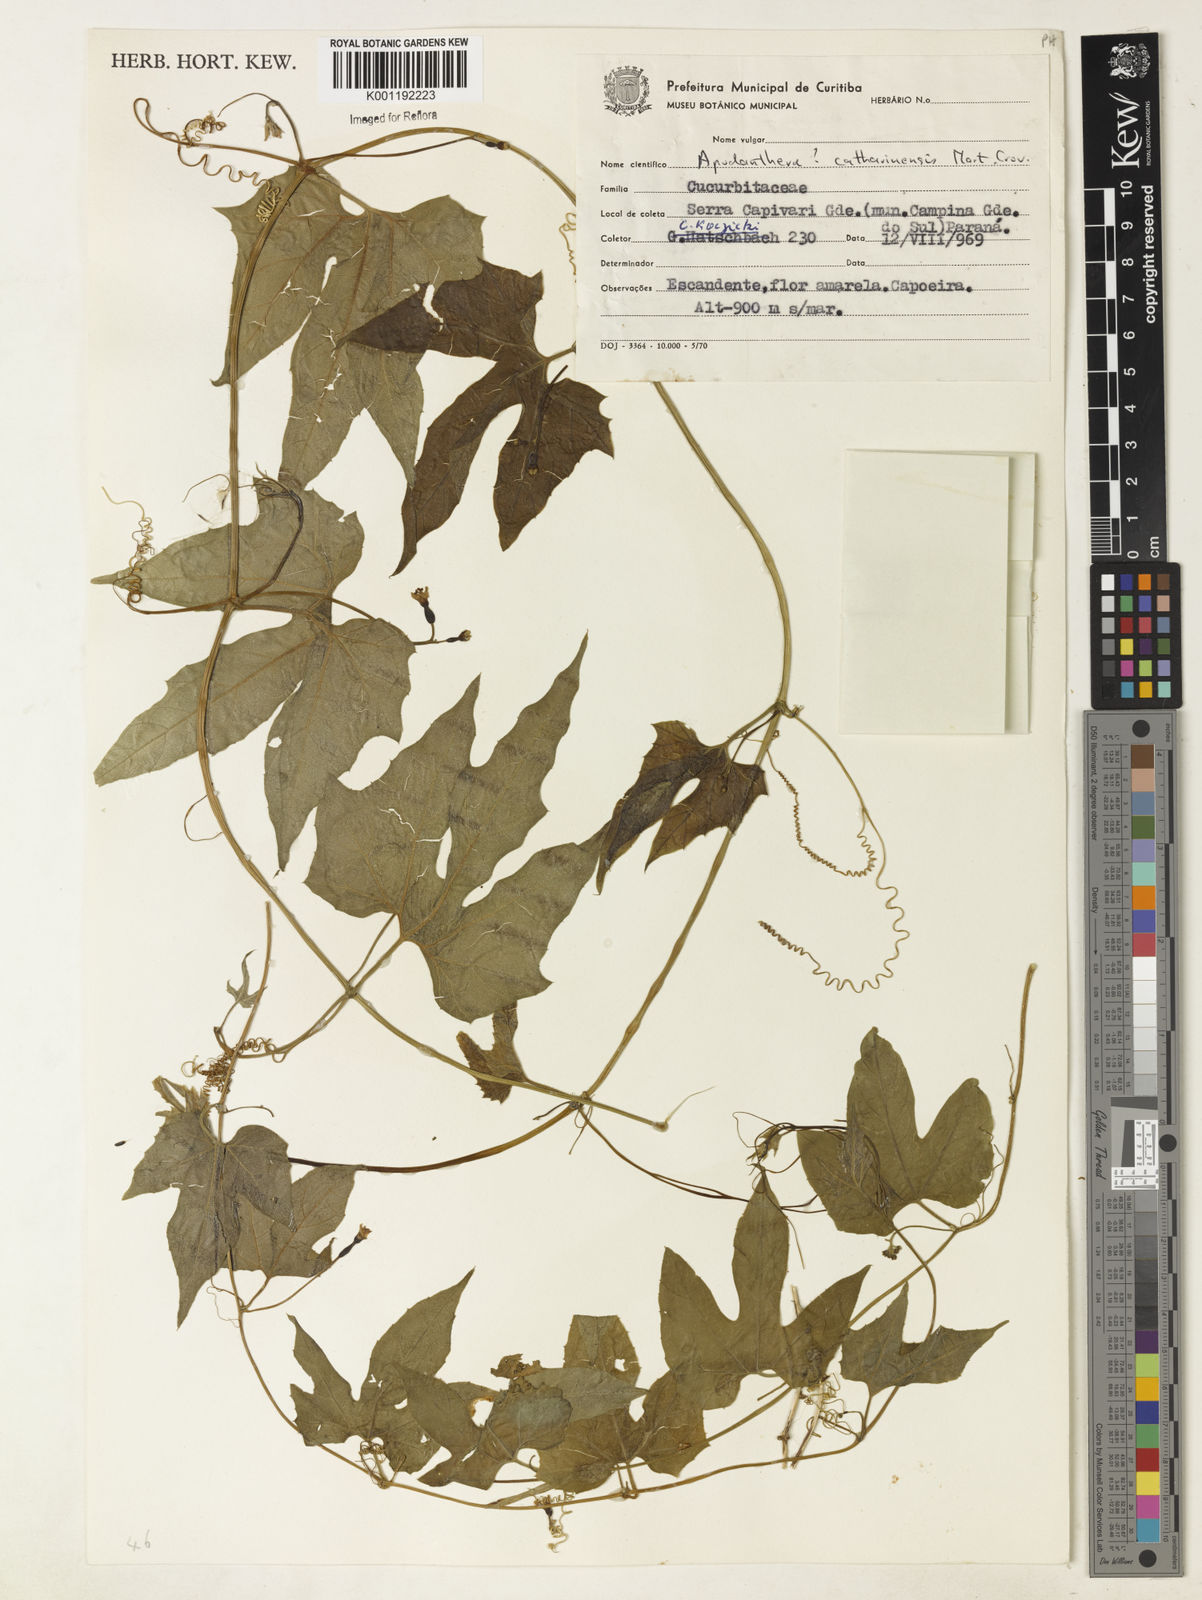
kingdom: Plantae
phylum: Tracheophyta
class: Magnoliopsida
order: Cucurbitales
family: Cucurbitaceae
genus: Apodanthera
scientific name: Apodanthera catharinensis
